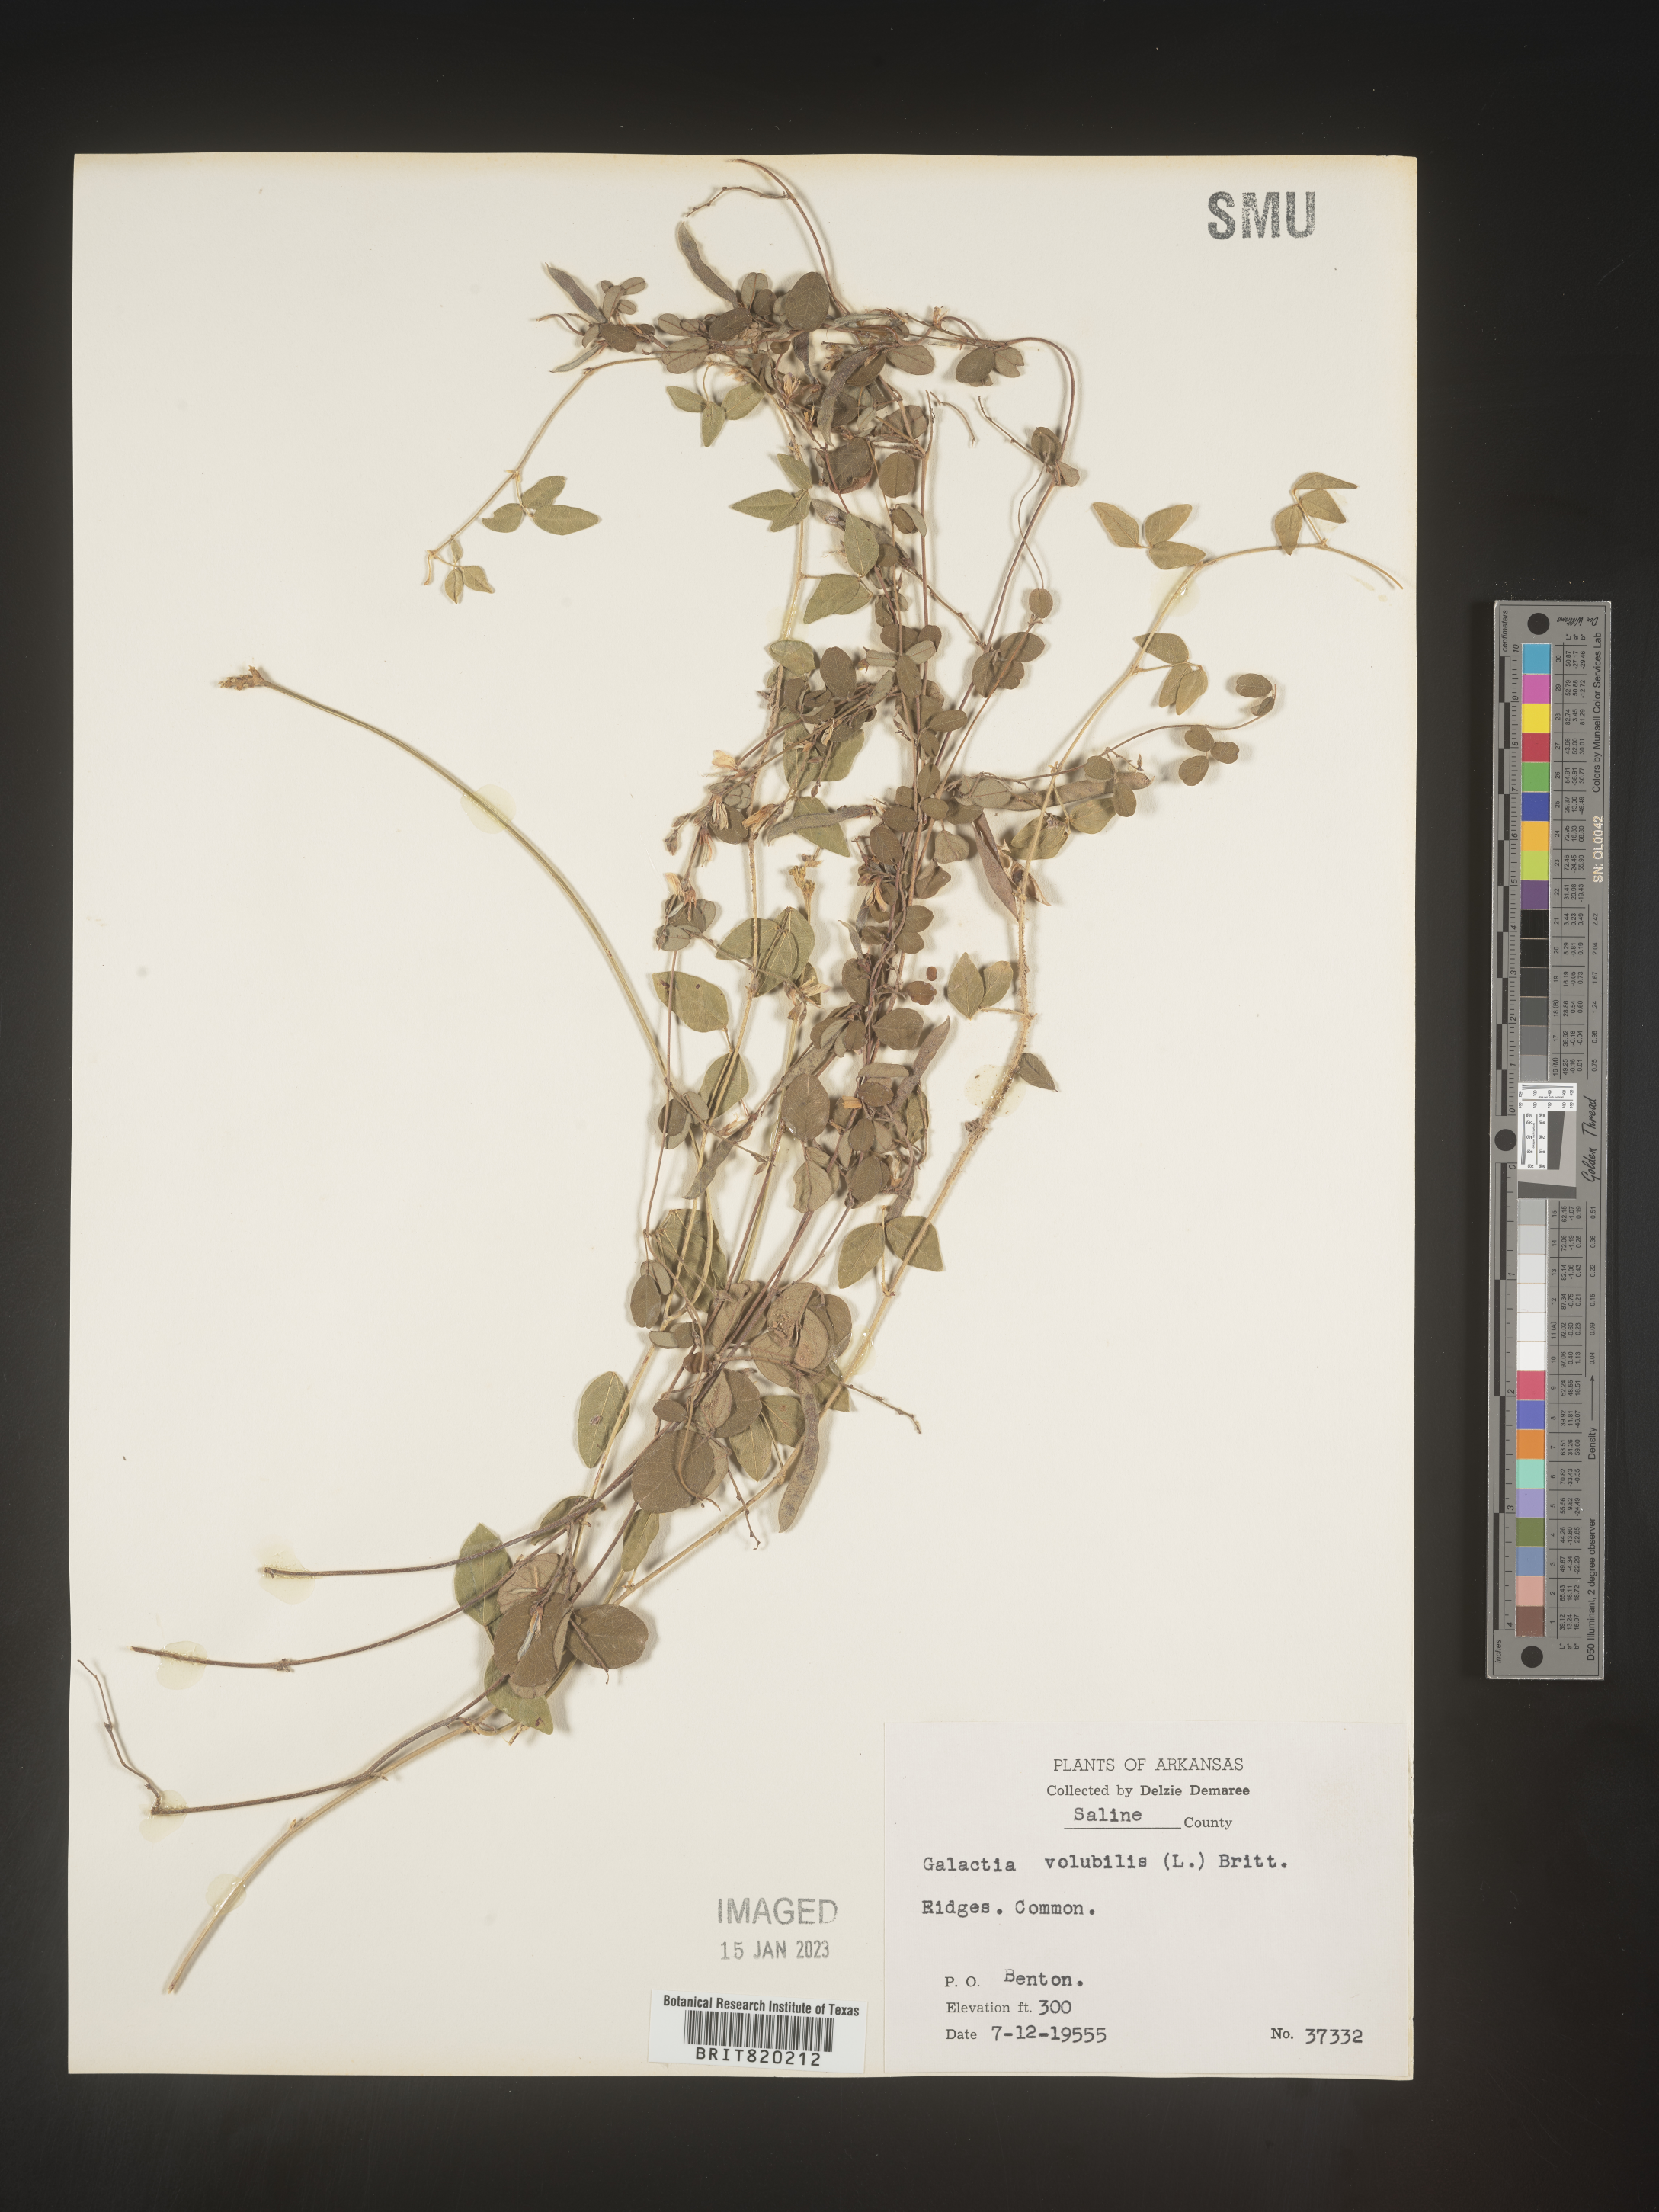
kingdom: Plantae
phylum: Tracheophyta
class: Magnoliopsida
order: Fabales
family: Fabaceae
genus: Galactia
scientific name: Galactia volubilis
